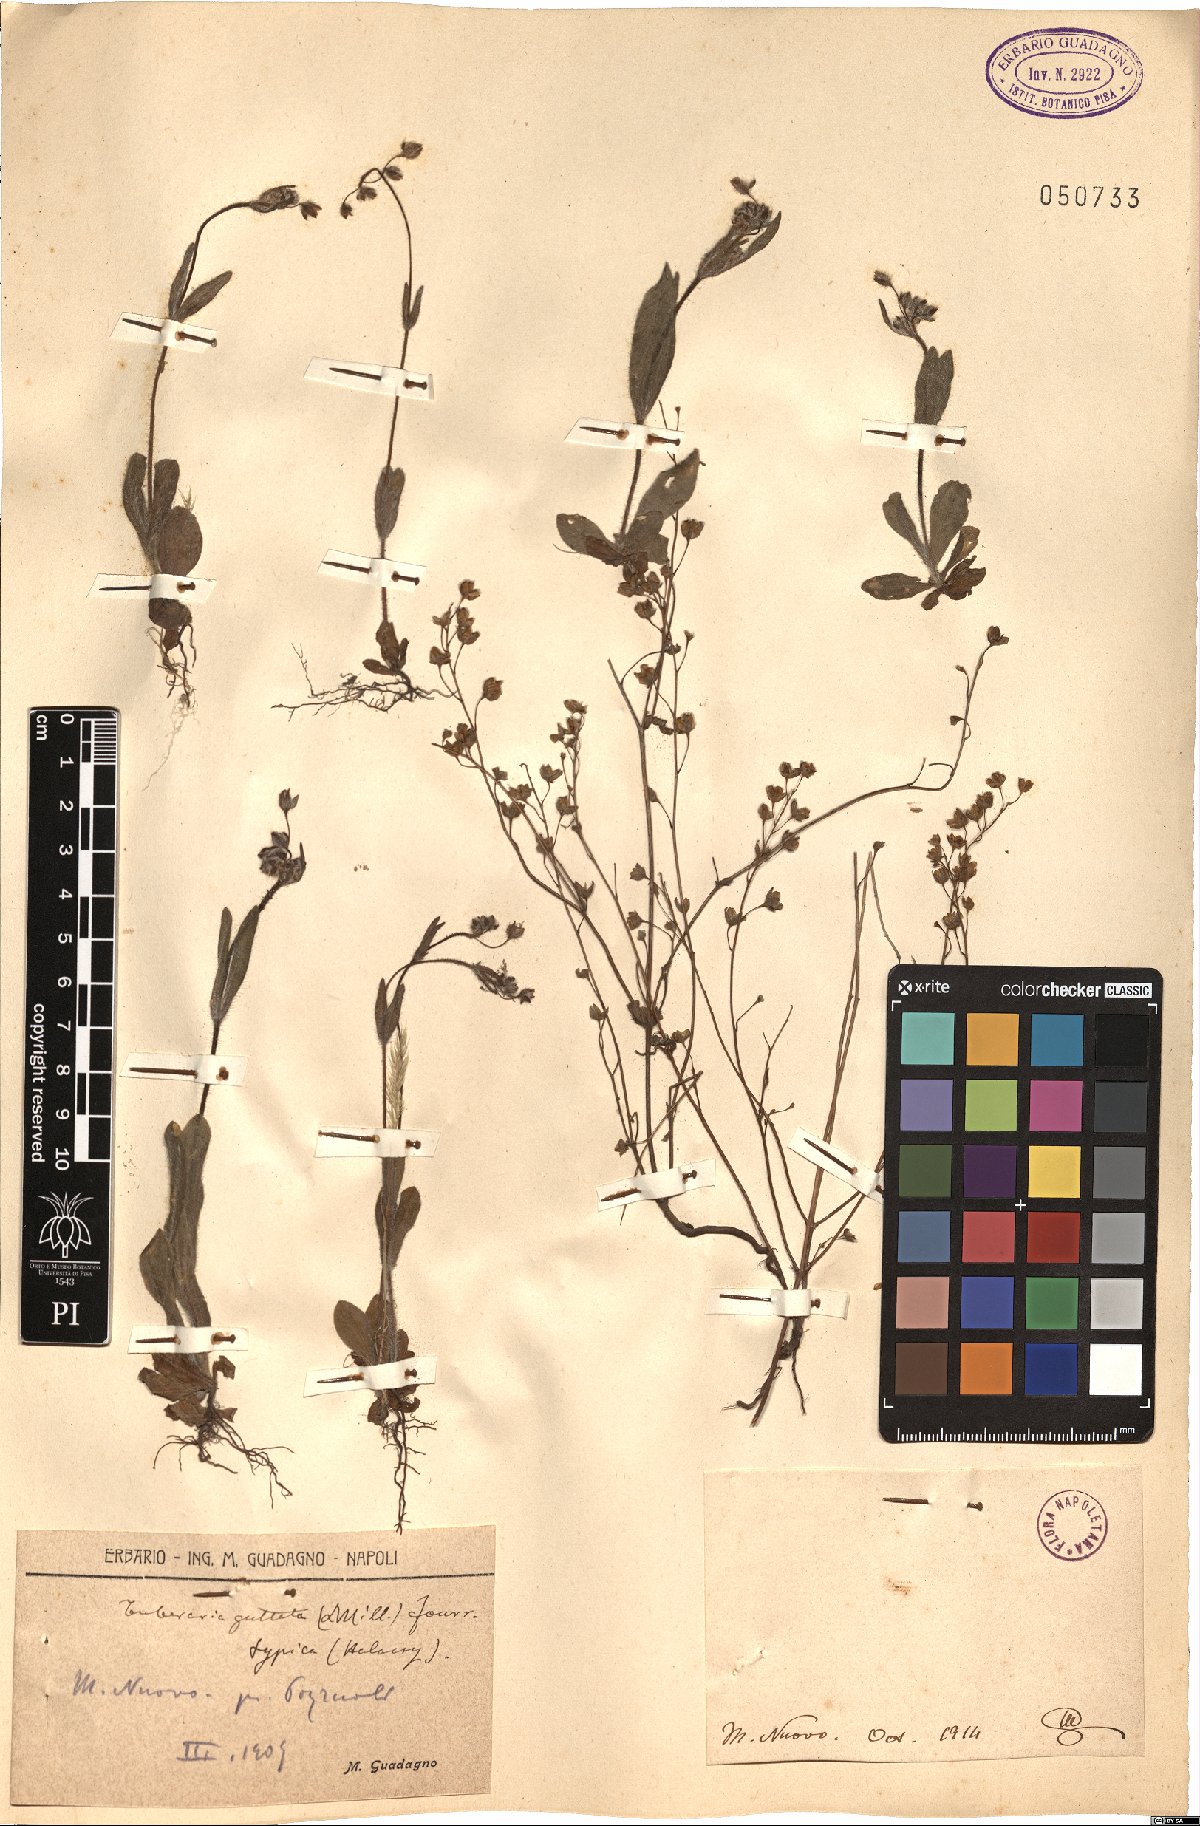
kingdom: Plantae
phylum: Tracheophyta
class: Magnoliopsida
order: Malvales
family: Cistaceae
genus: Tuberaria
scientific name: Tuberaria guttata
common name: Spotted rock-rose
